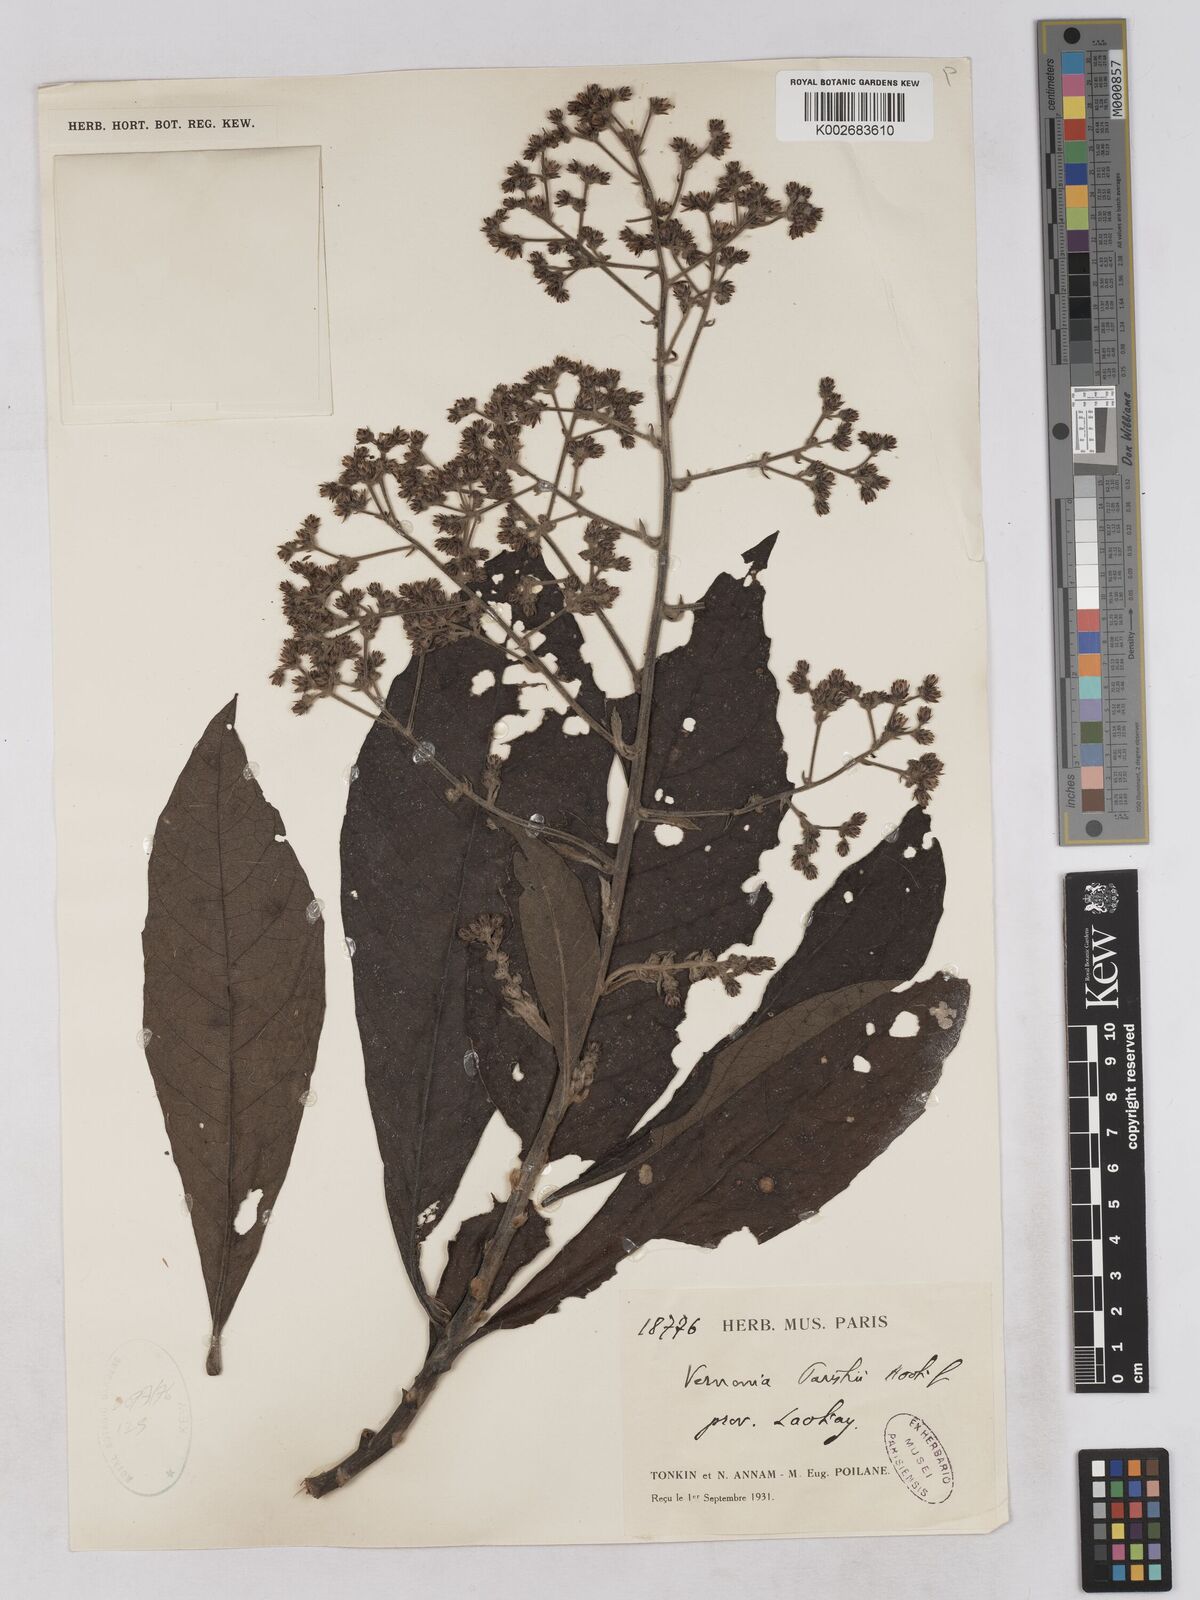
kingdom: Plantae
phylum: Tracheophyta
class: Magnoliopsida
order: Asterales
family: Asteraceae
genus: Monosis
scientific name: Monosis parishii
